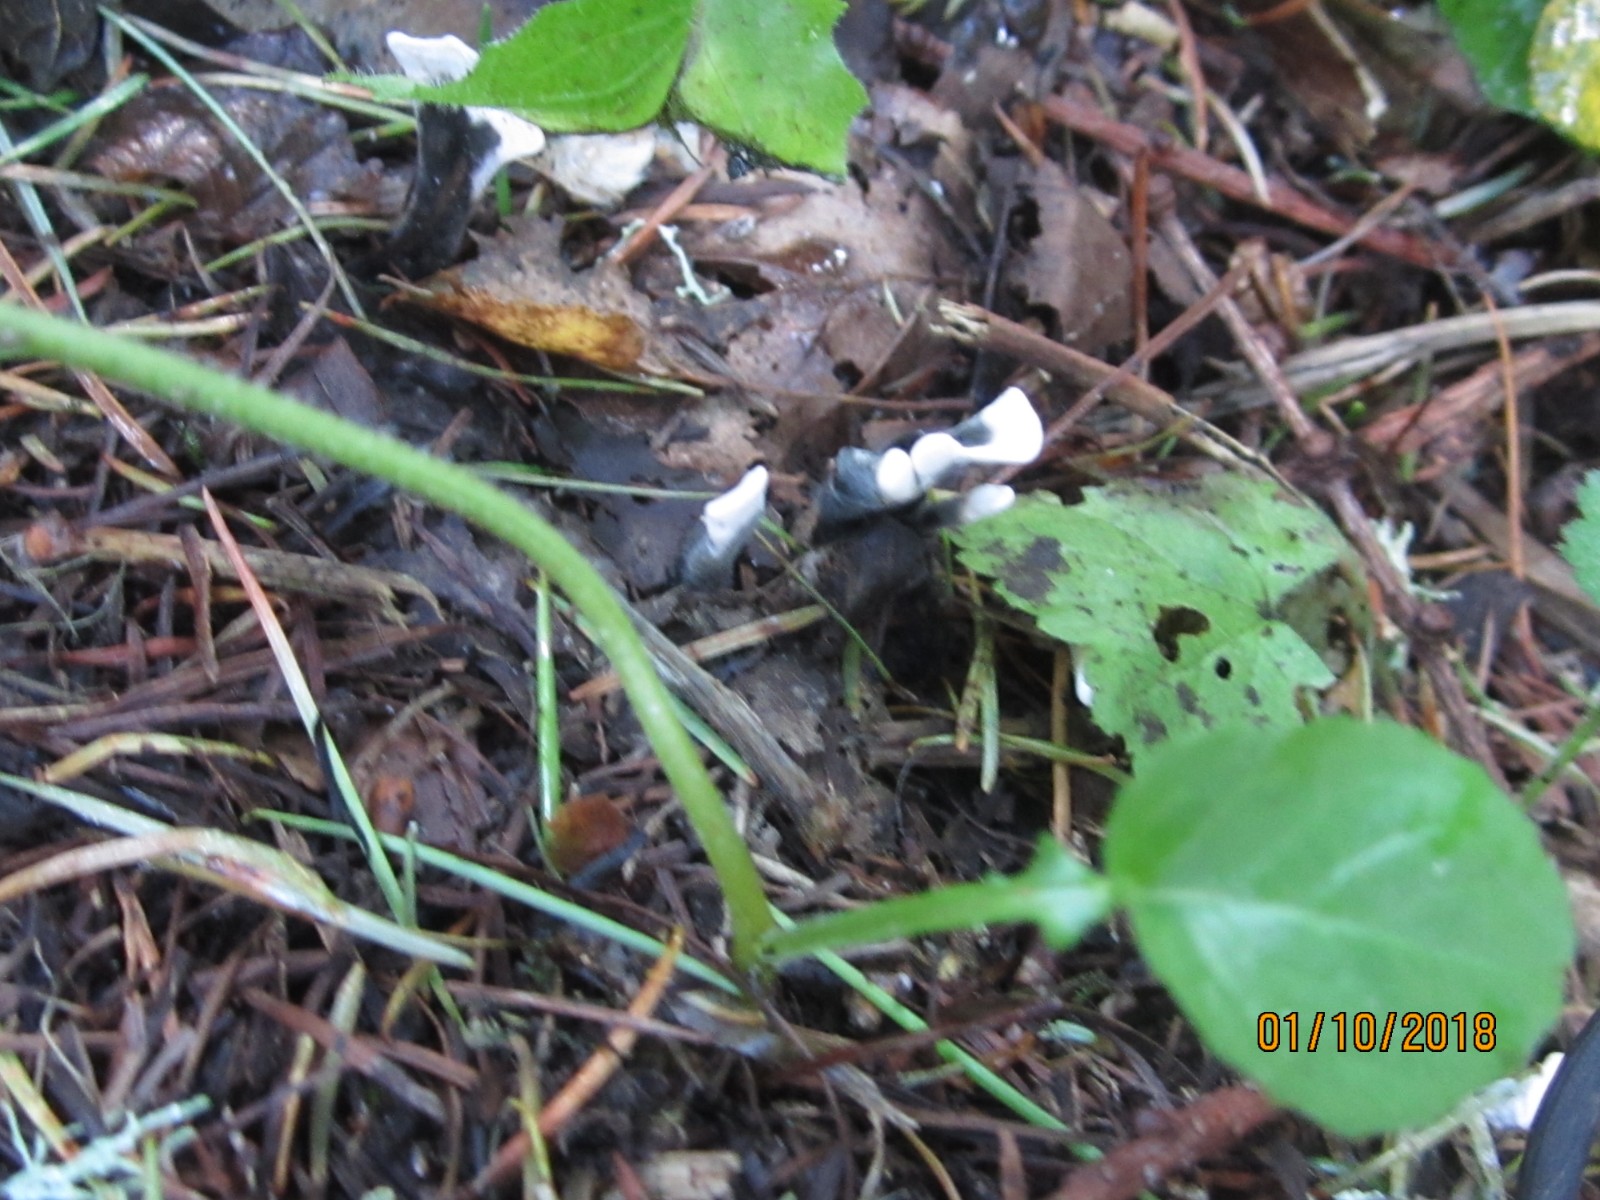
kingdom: Fungi
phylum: Ascomycota
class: Sordariomycetes
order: Xylariales
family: Xylariaceae
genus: Xylaria
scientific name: Xylaria hypoxylon
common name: grenet stødsvamp
